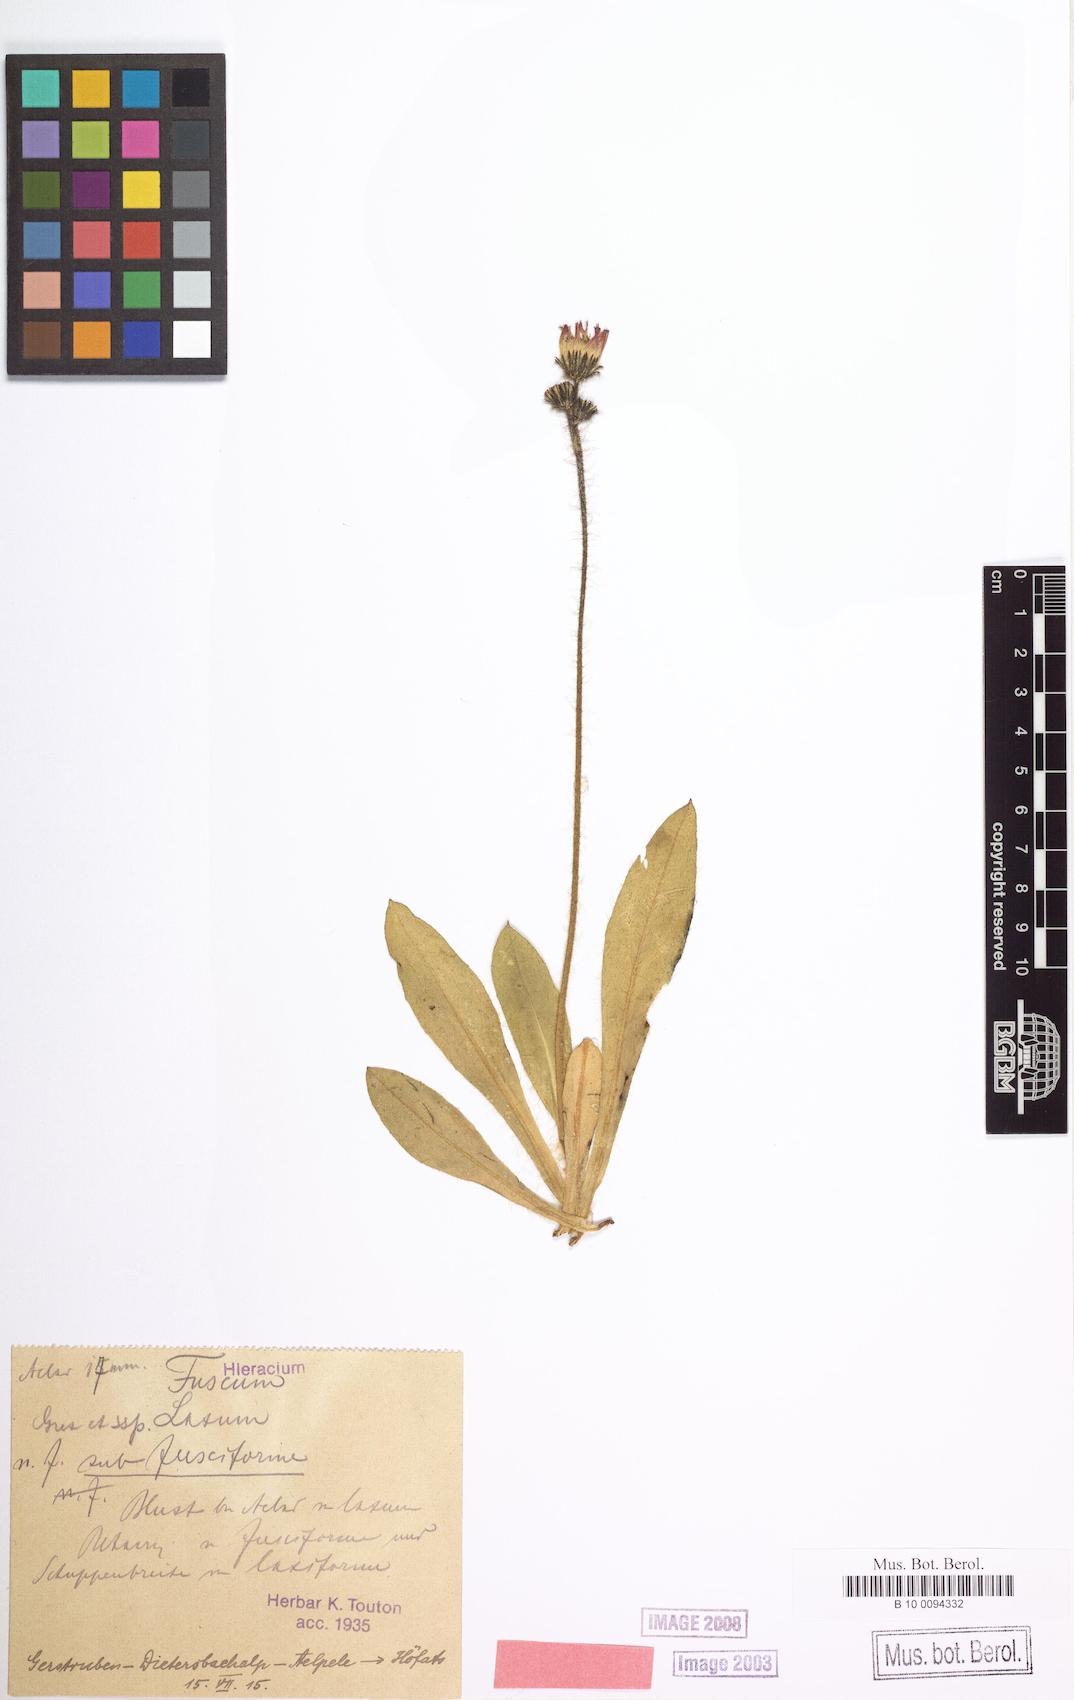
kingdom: Plantae
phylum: Tracheophyta
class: Magnoliopsida
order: Asterales
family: Asteraceae
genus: Hieracium
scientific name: Hieracium fuscum
